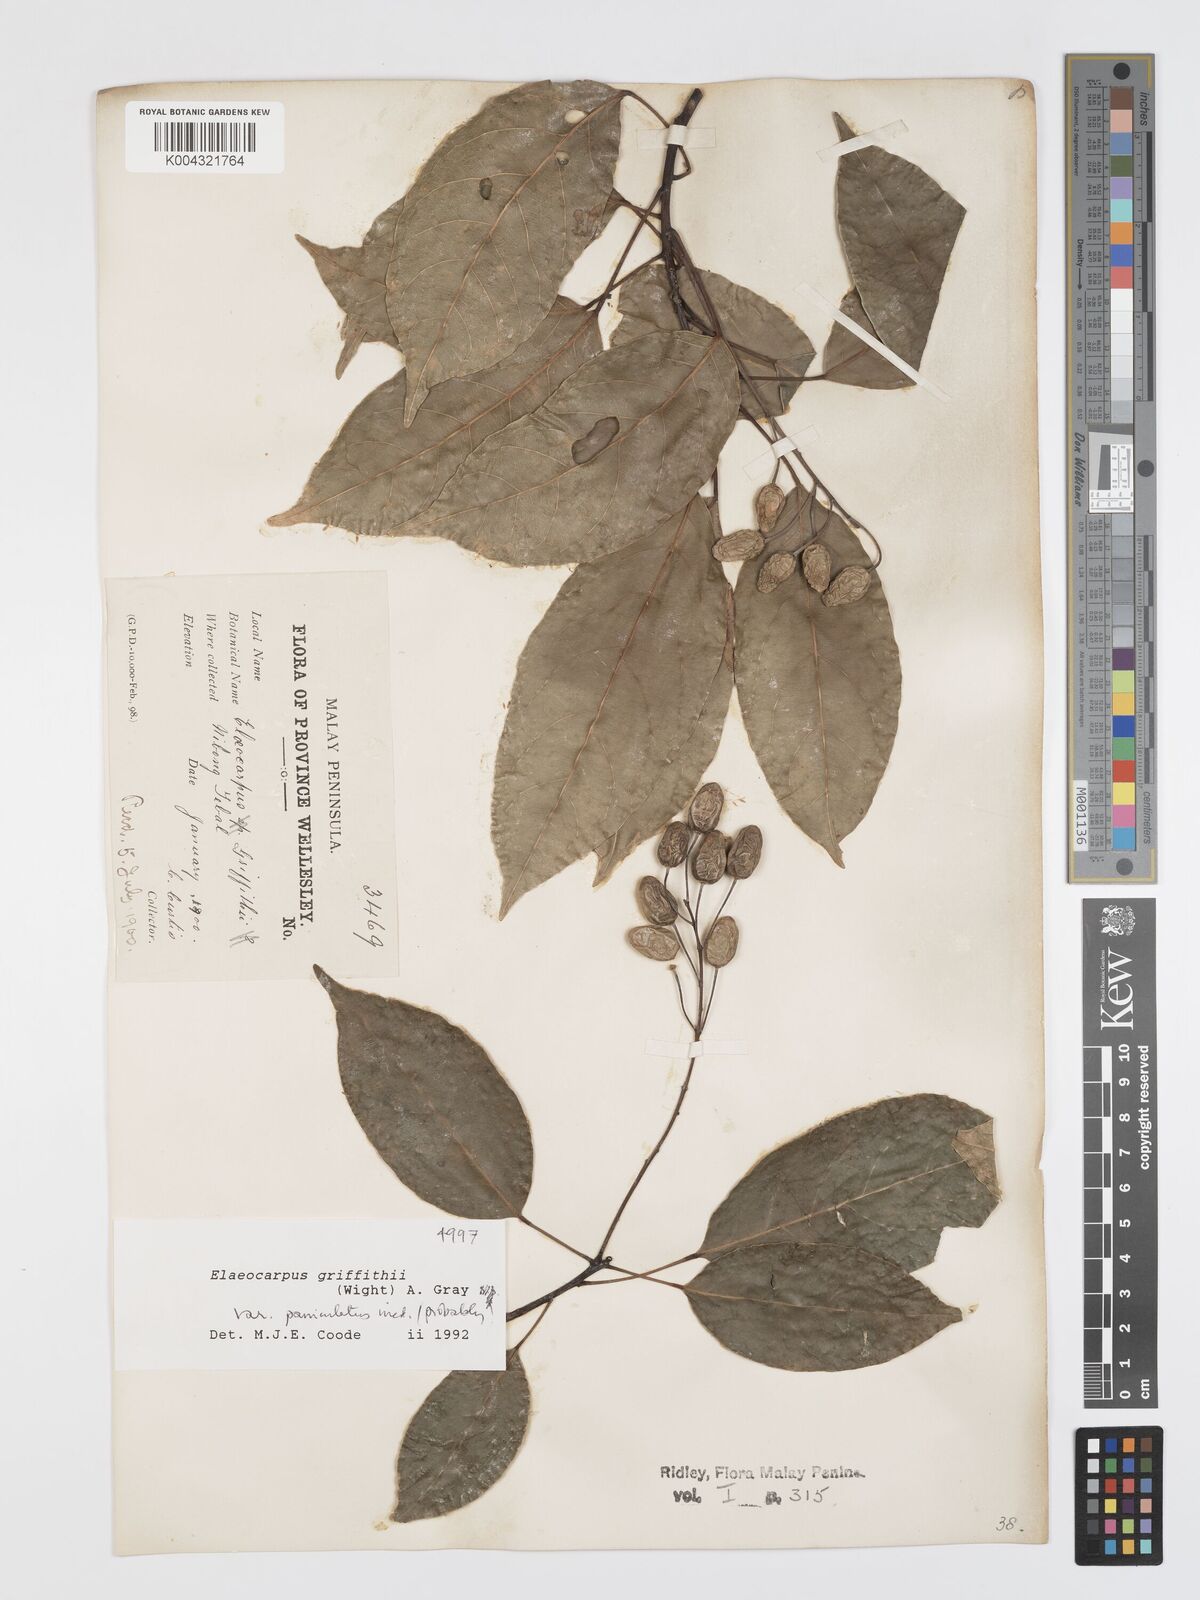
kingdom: Plantae
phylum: Tracheophyta
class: Magnoliopsida
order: Oxalidales
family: Elaeocarpaceae
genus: Elaeocarpus
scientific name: Elaeocarpus griffithii
